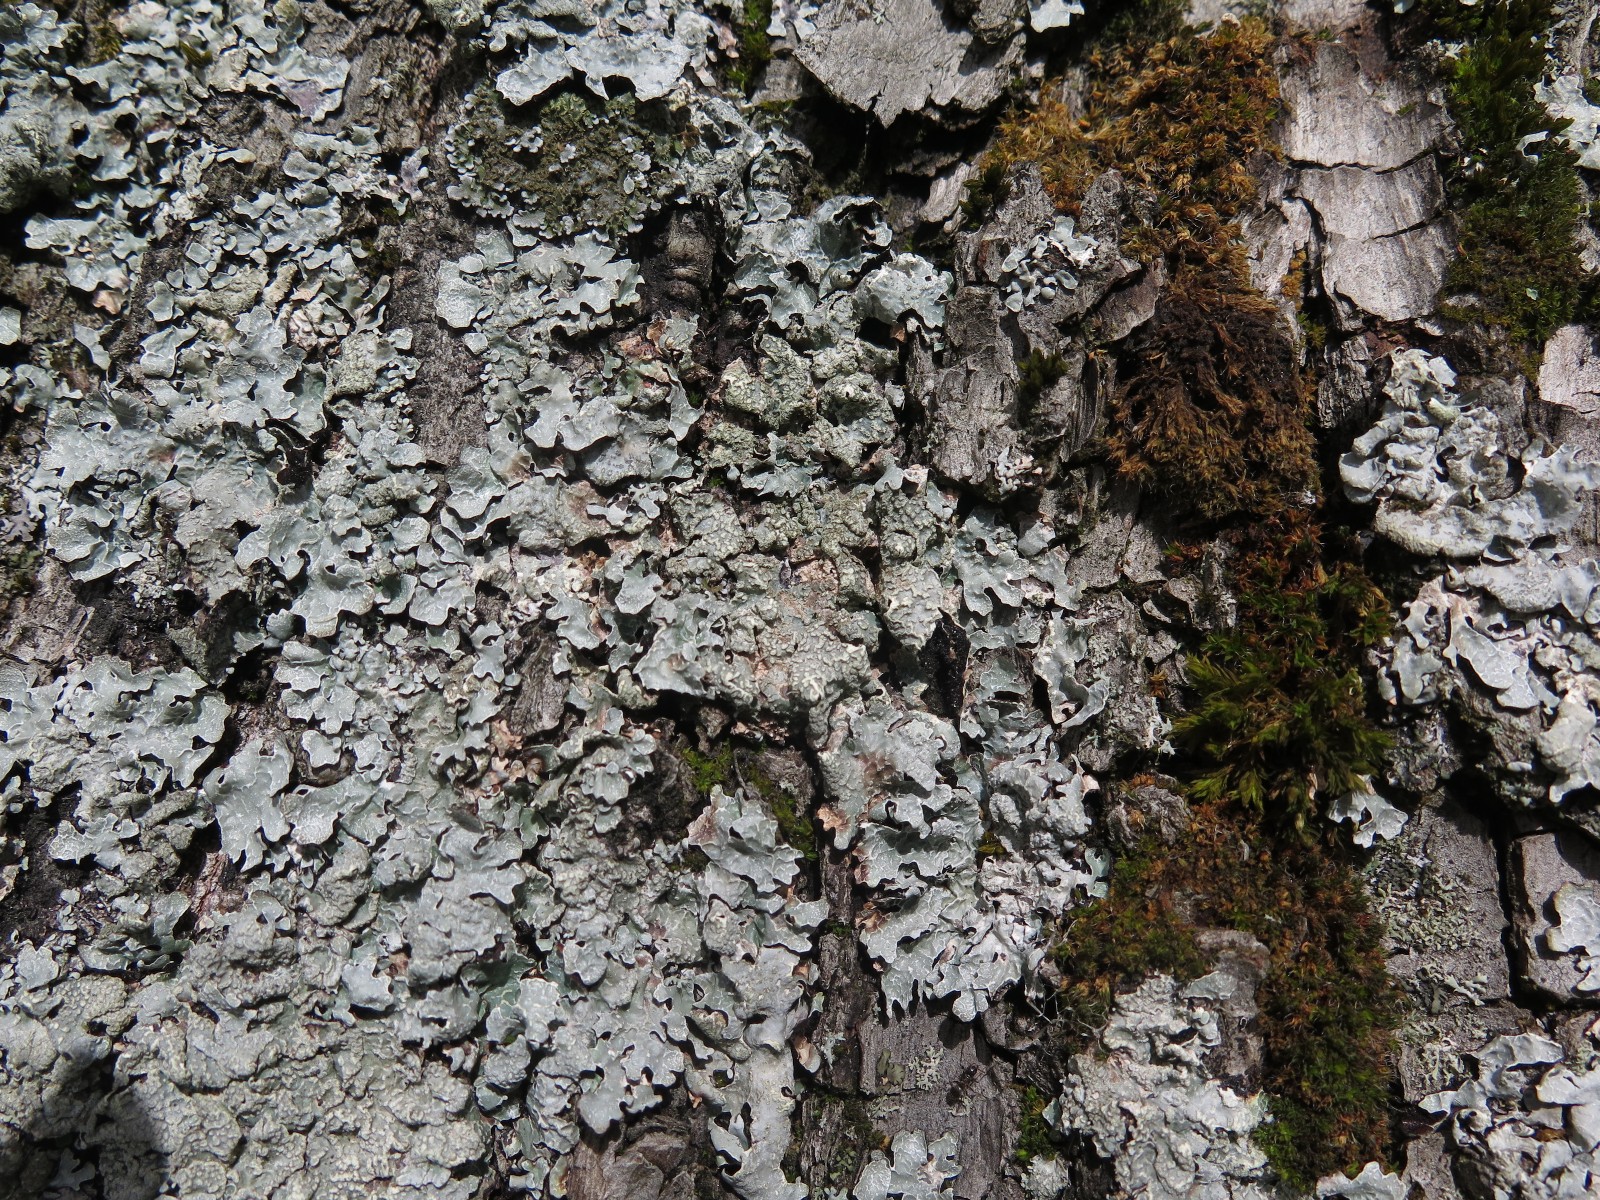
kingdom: Fungi
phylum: Ascomycota
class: Lecanoromycetes
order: Lecanorales
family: Parmeliaceae
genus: Parmelia
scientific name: Parmelia sulcata
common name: rynket skållav
